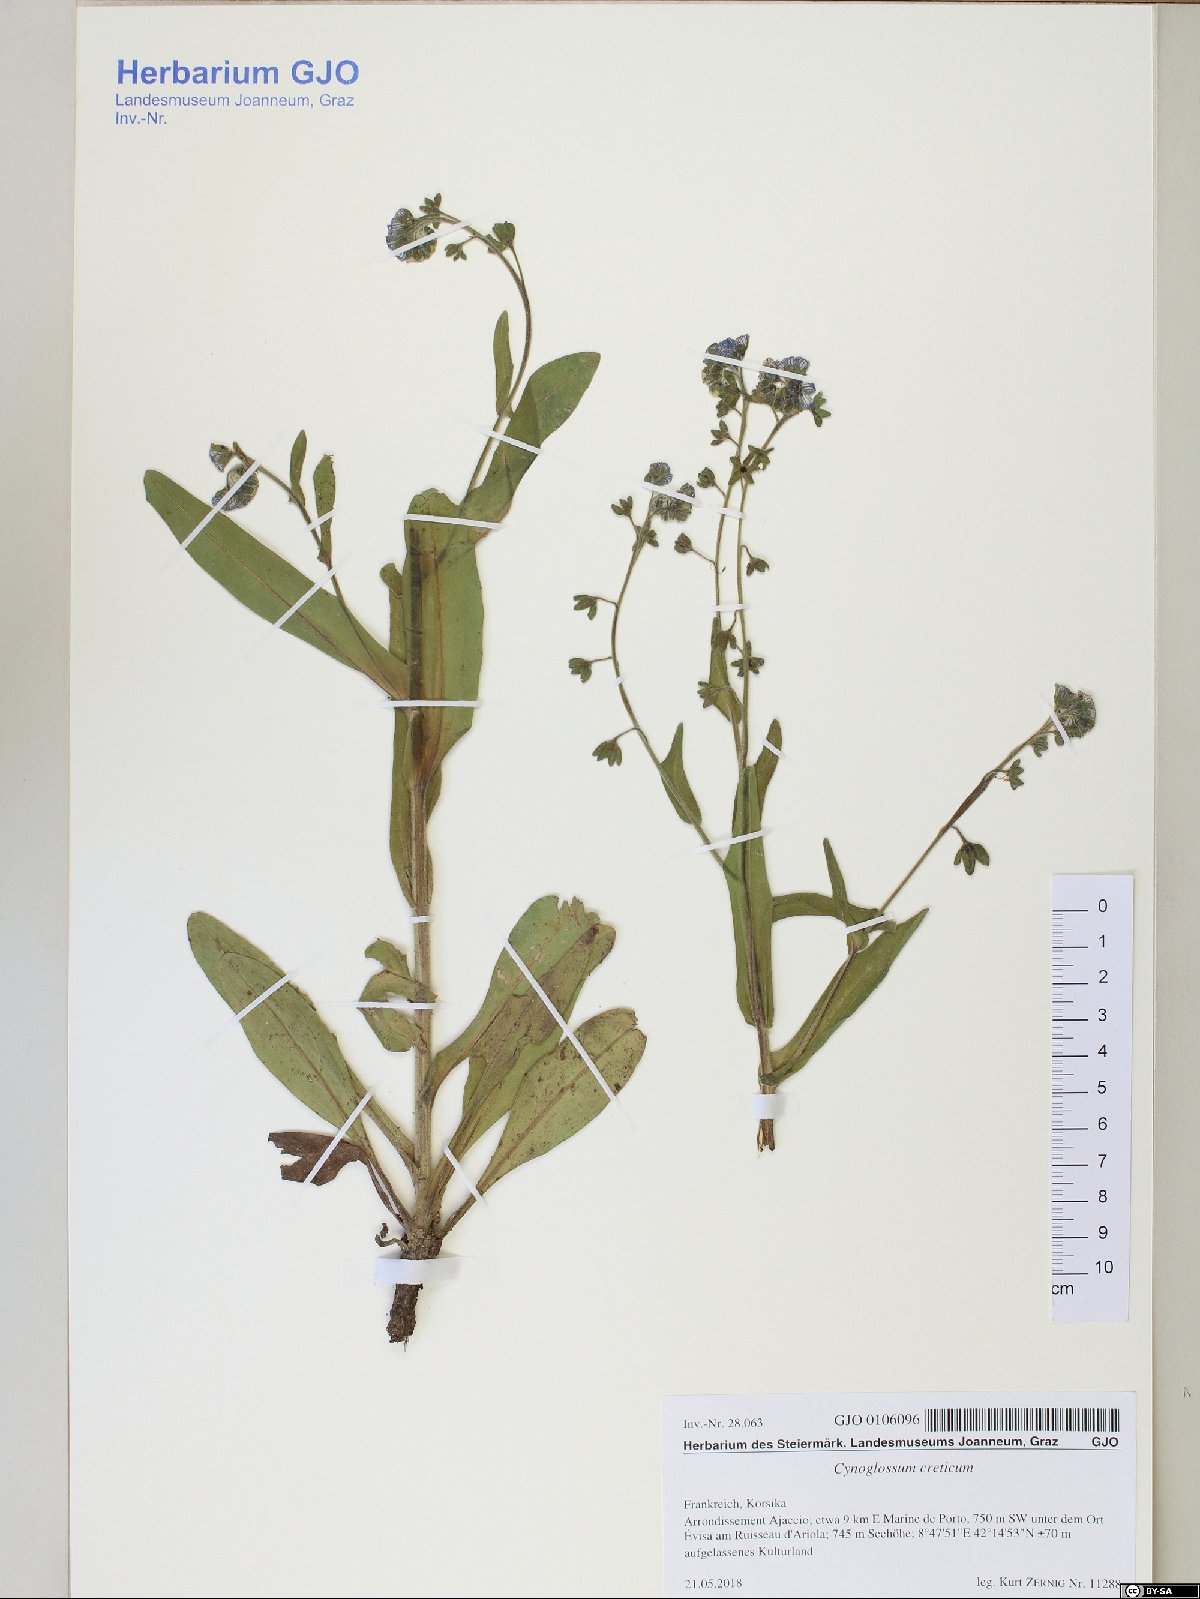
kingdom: Plantae
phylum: Tracheophyta
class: Magnoliopsida
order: Boraginales
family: Boraginaceae
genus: Cynoglossum
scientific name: Cynoglossum creticum
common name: Blue hound's tongue
